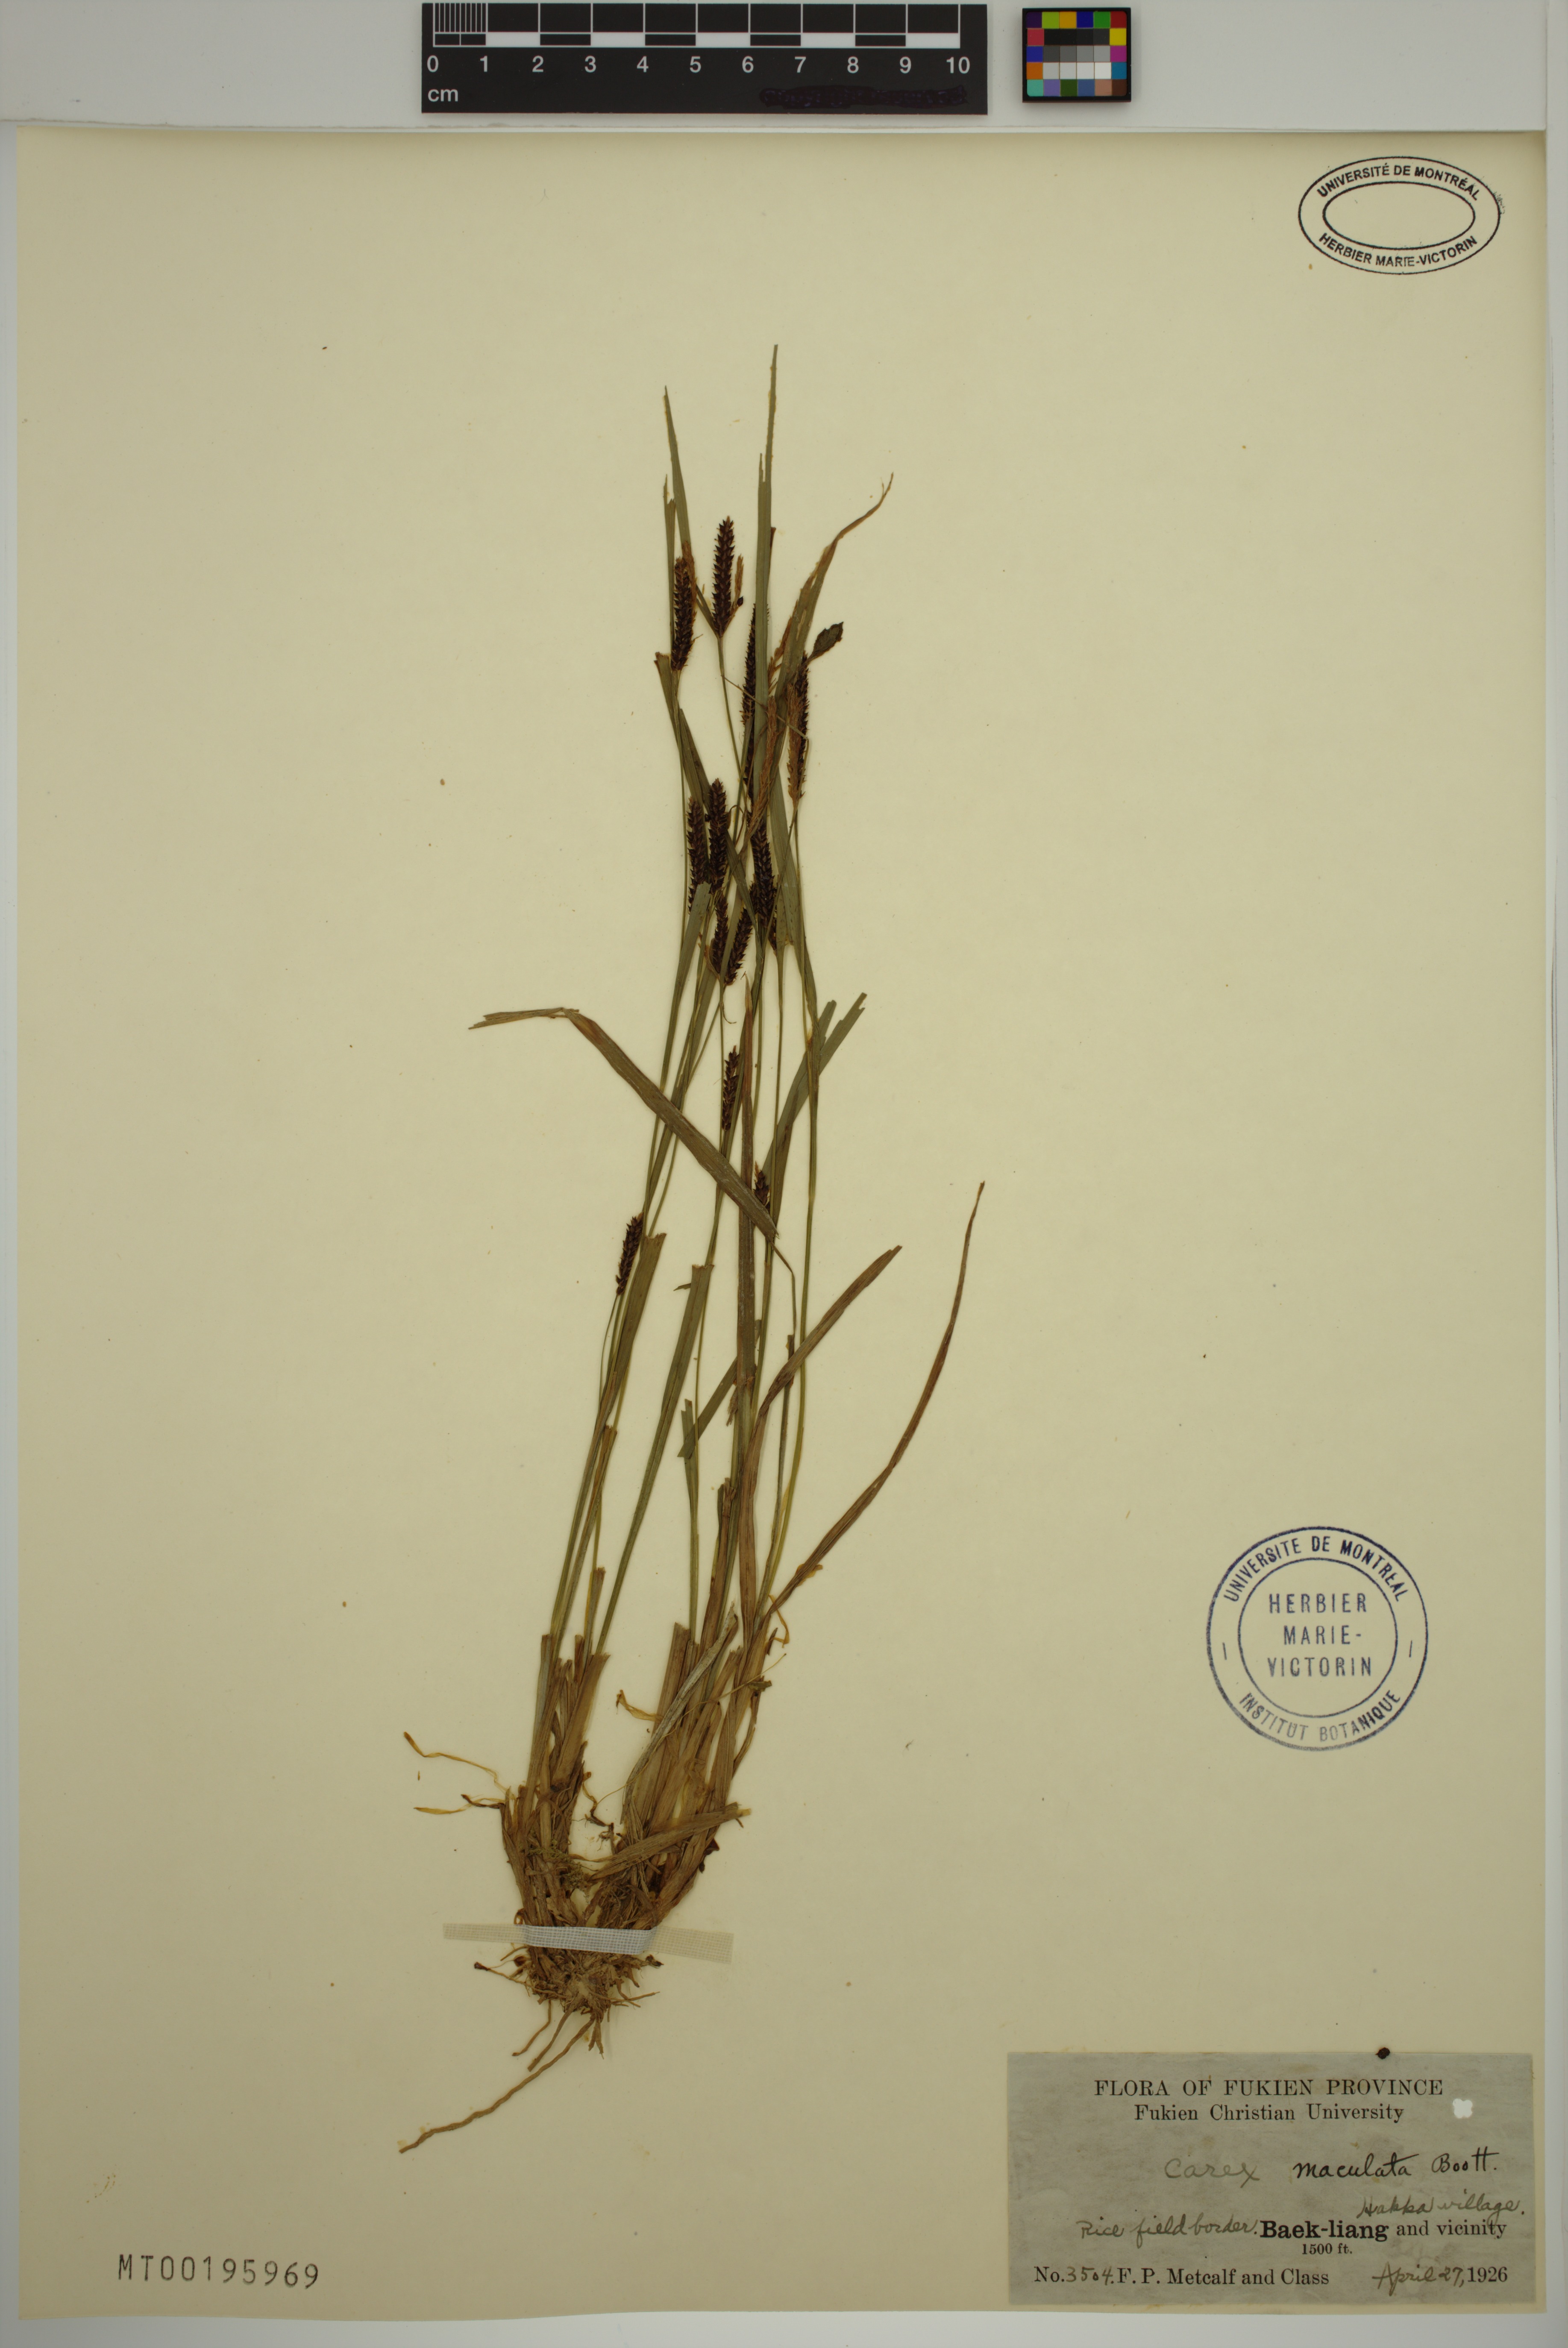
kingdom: Plantae
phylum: Tracheophyta
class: Liliopsida
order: Poales
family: Cyperaceae
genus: Carex
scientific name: Carex maculata
